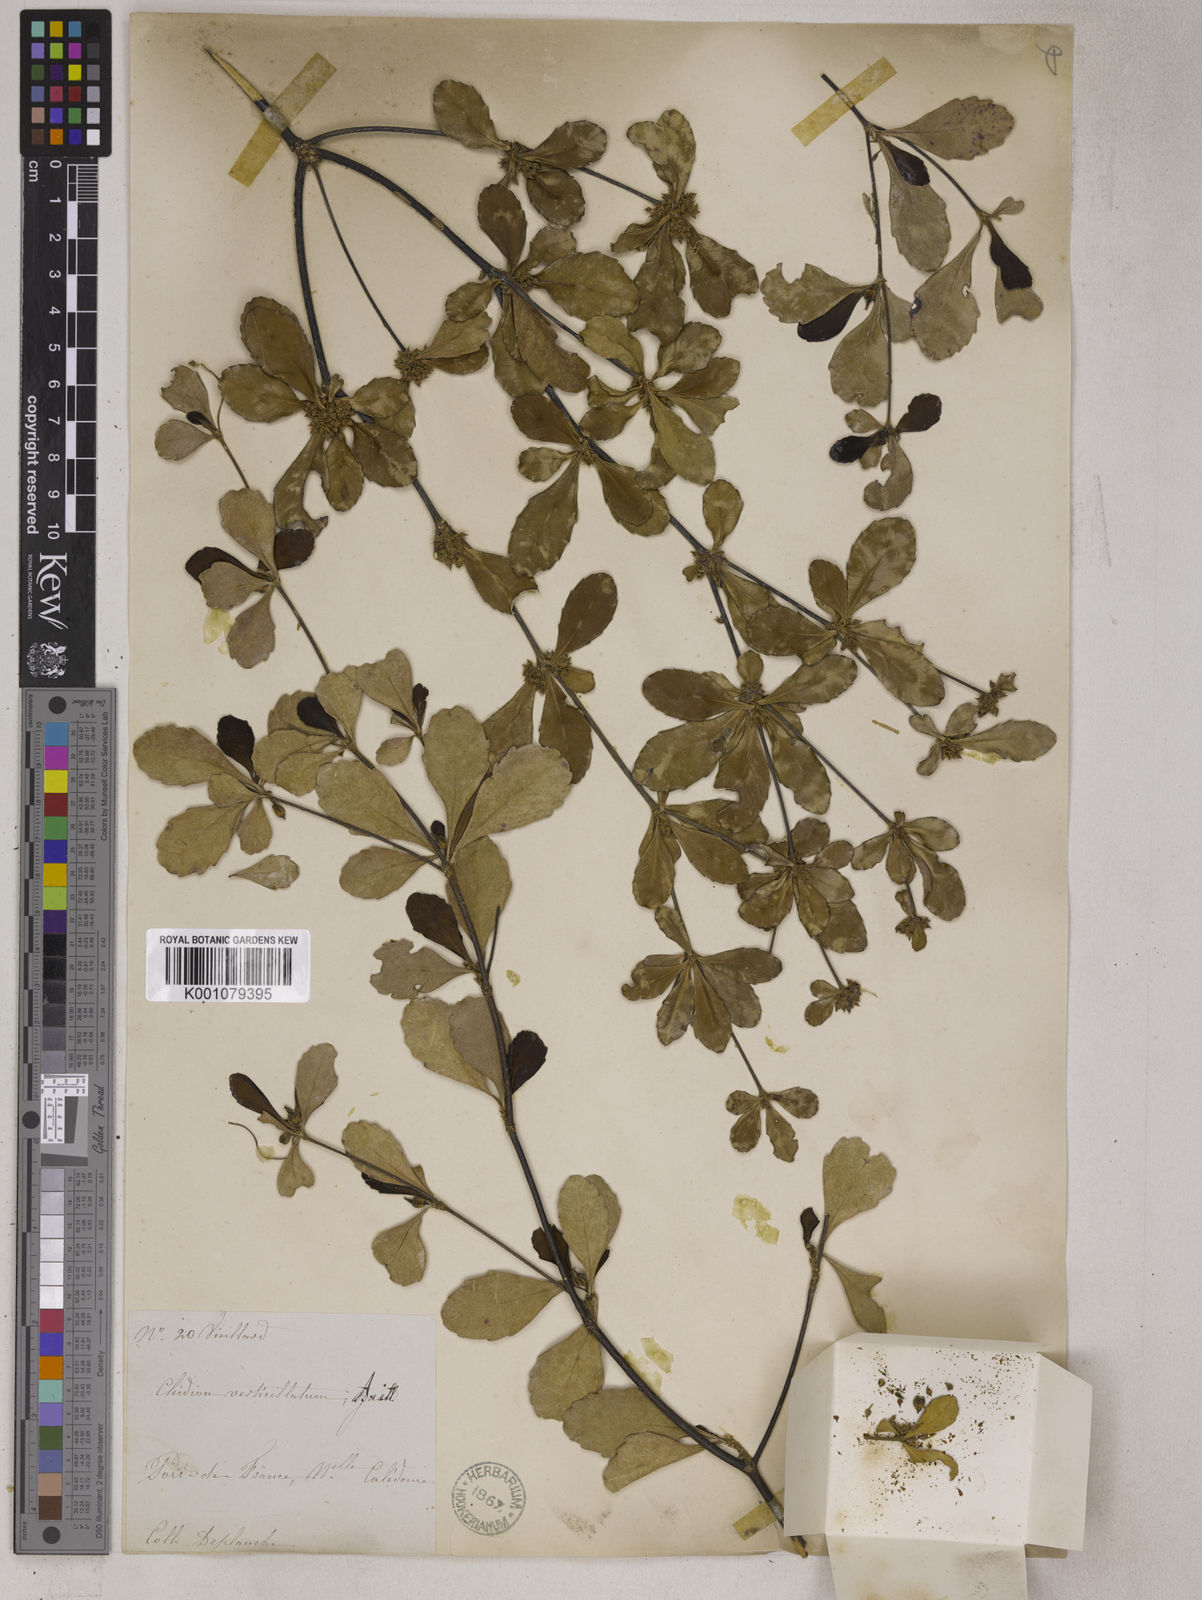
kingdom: Plantae
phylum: Tracheophyta
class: Magnoliopsida
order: Malpighiales
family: Euphorbiaceae
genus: Cleidion
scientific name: Cleidion verticillatum
